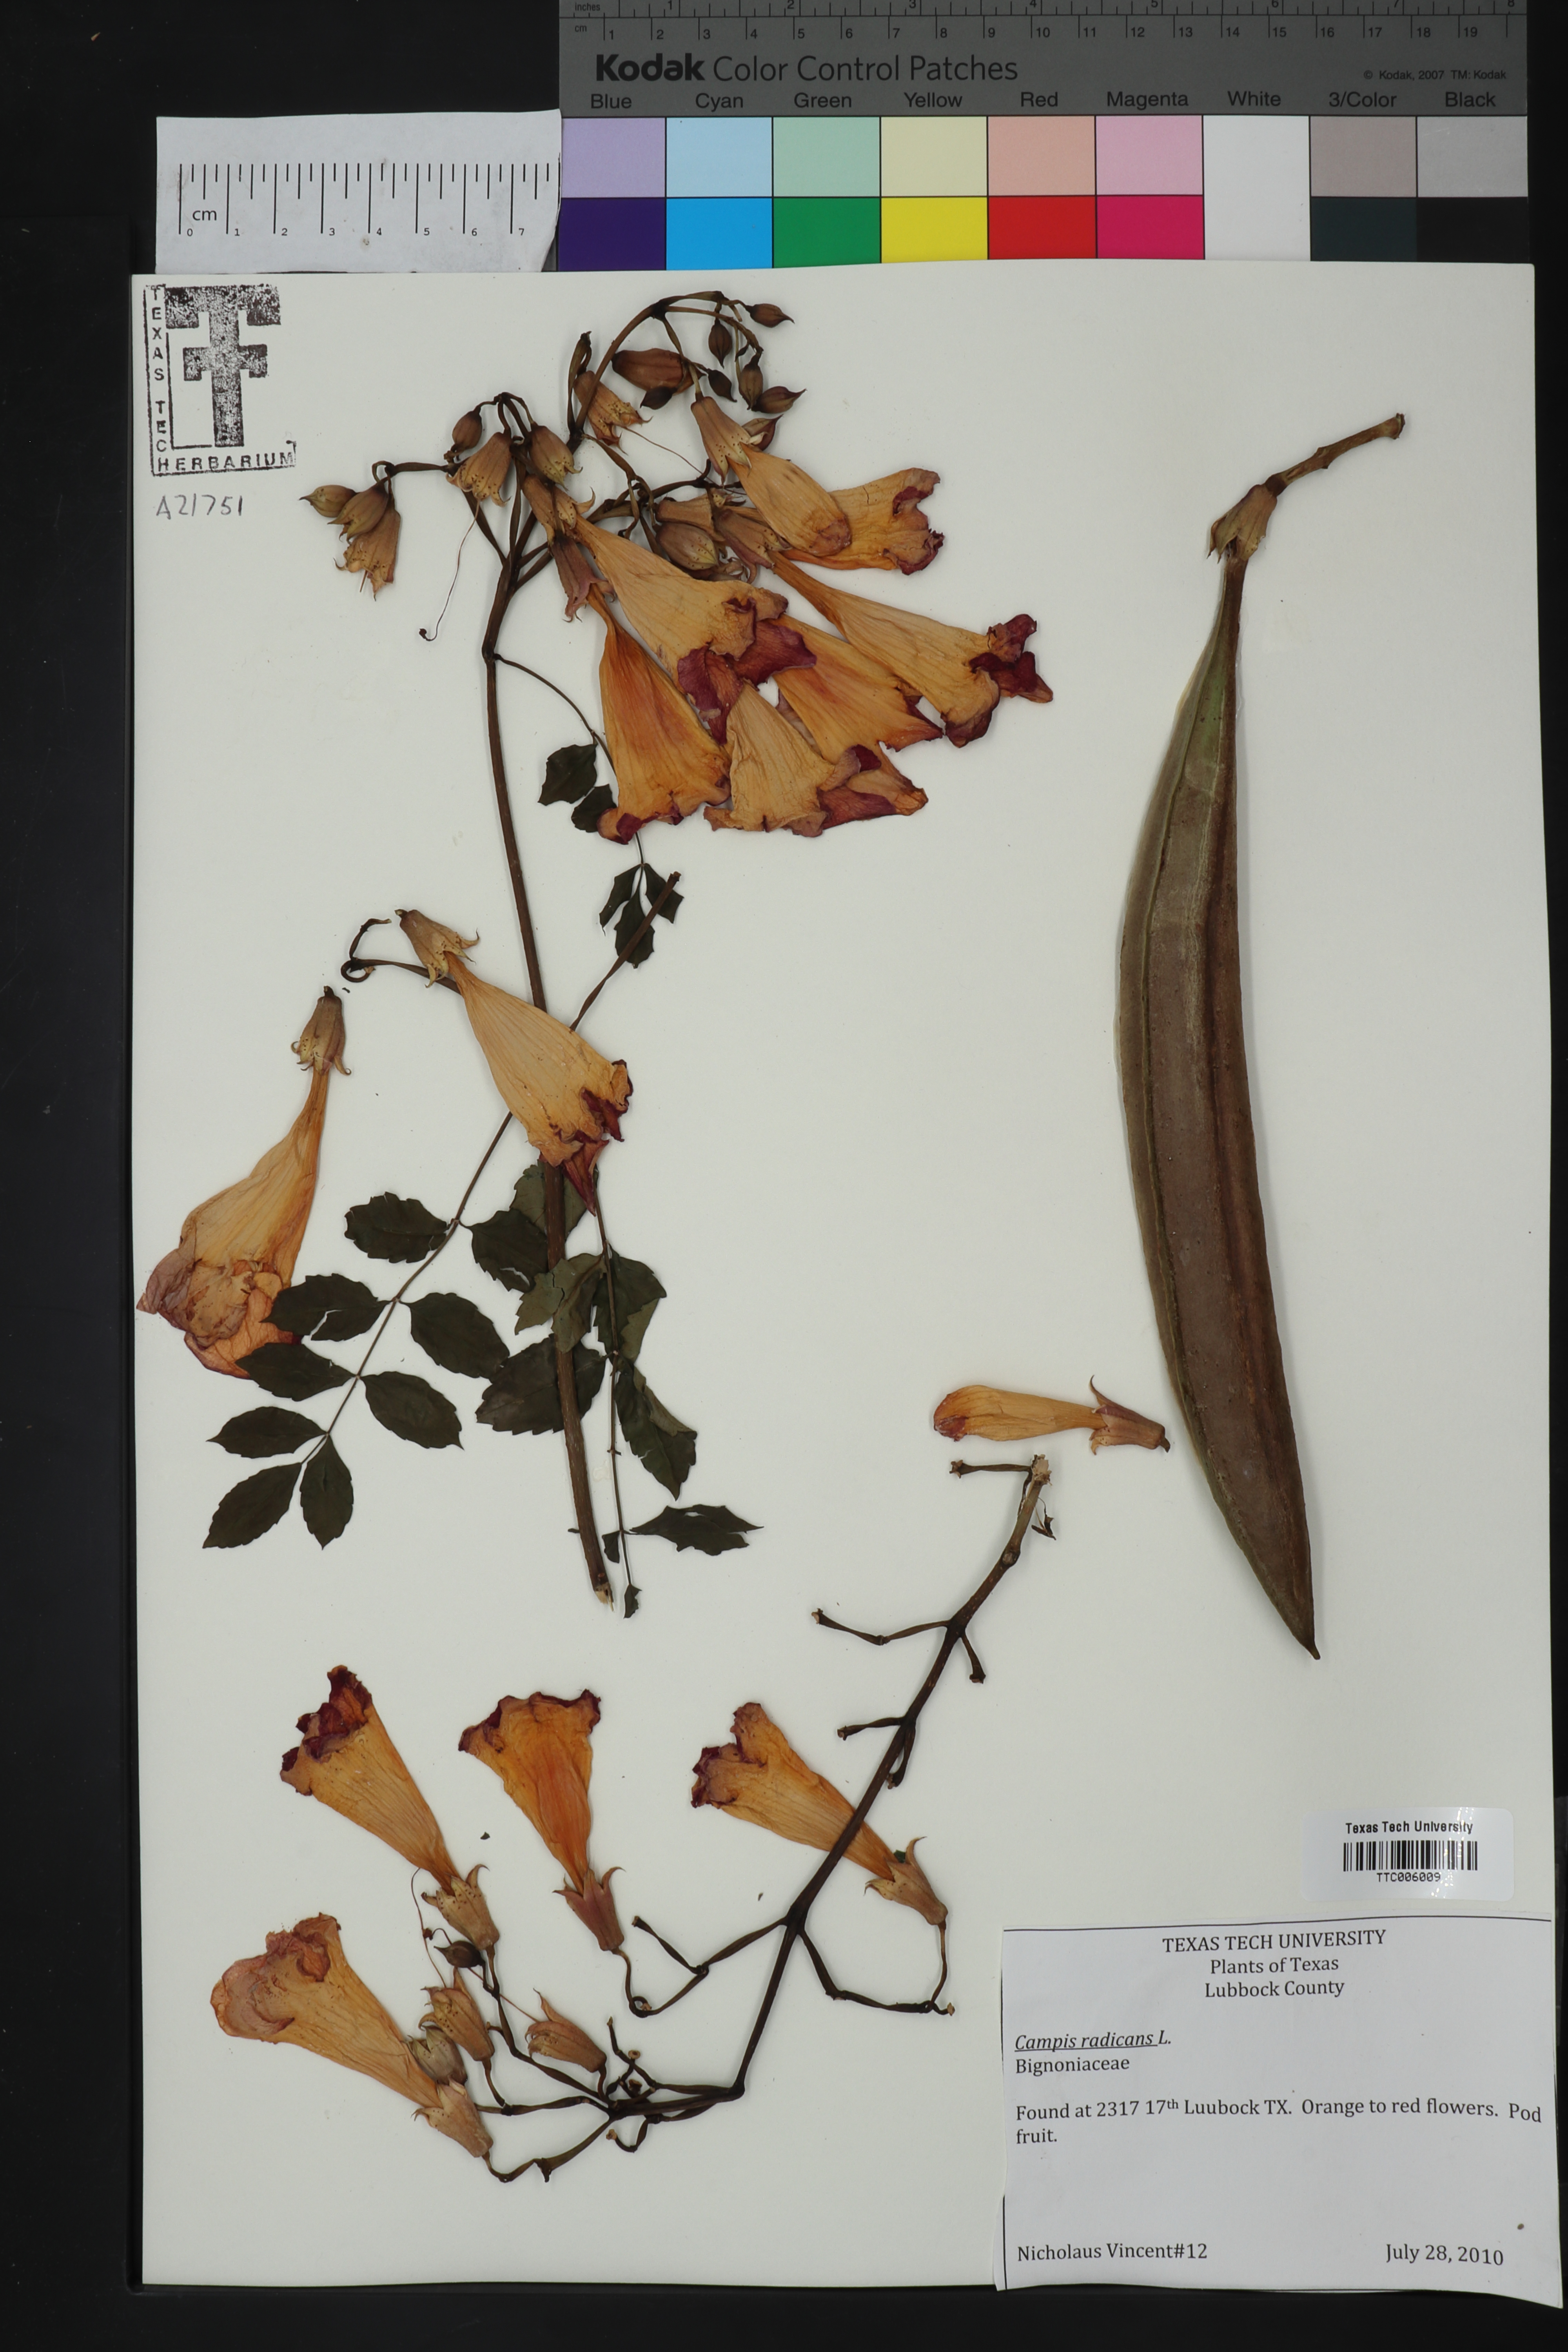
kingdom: Plantae
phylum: Tracheophyta
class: Magnoliopsida
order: Lamiales
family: Bignoniaceae
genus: Campsis
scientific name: Campsis radicans
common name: Trumpet-creeper
